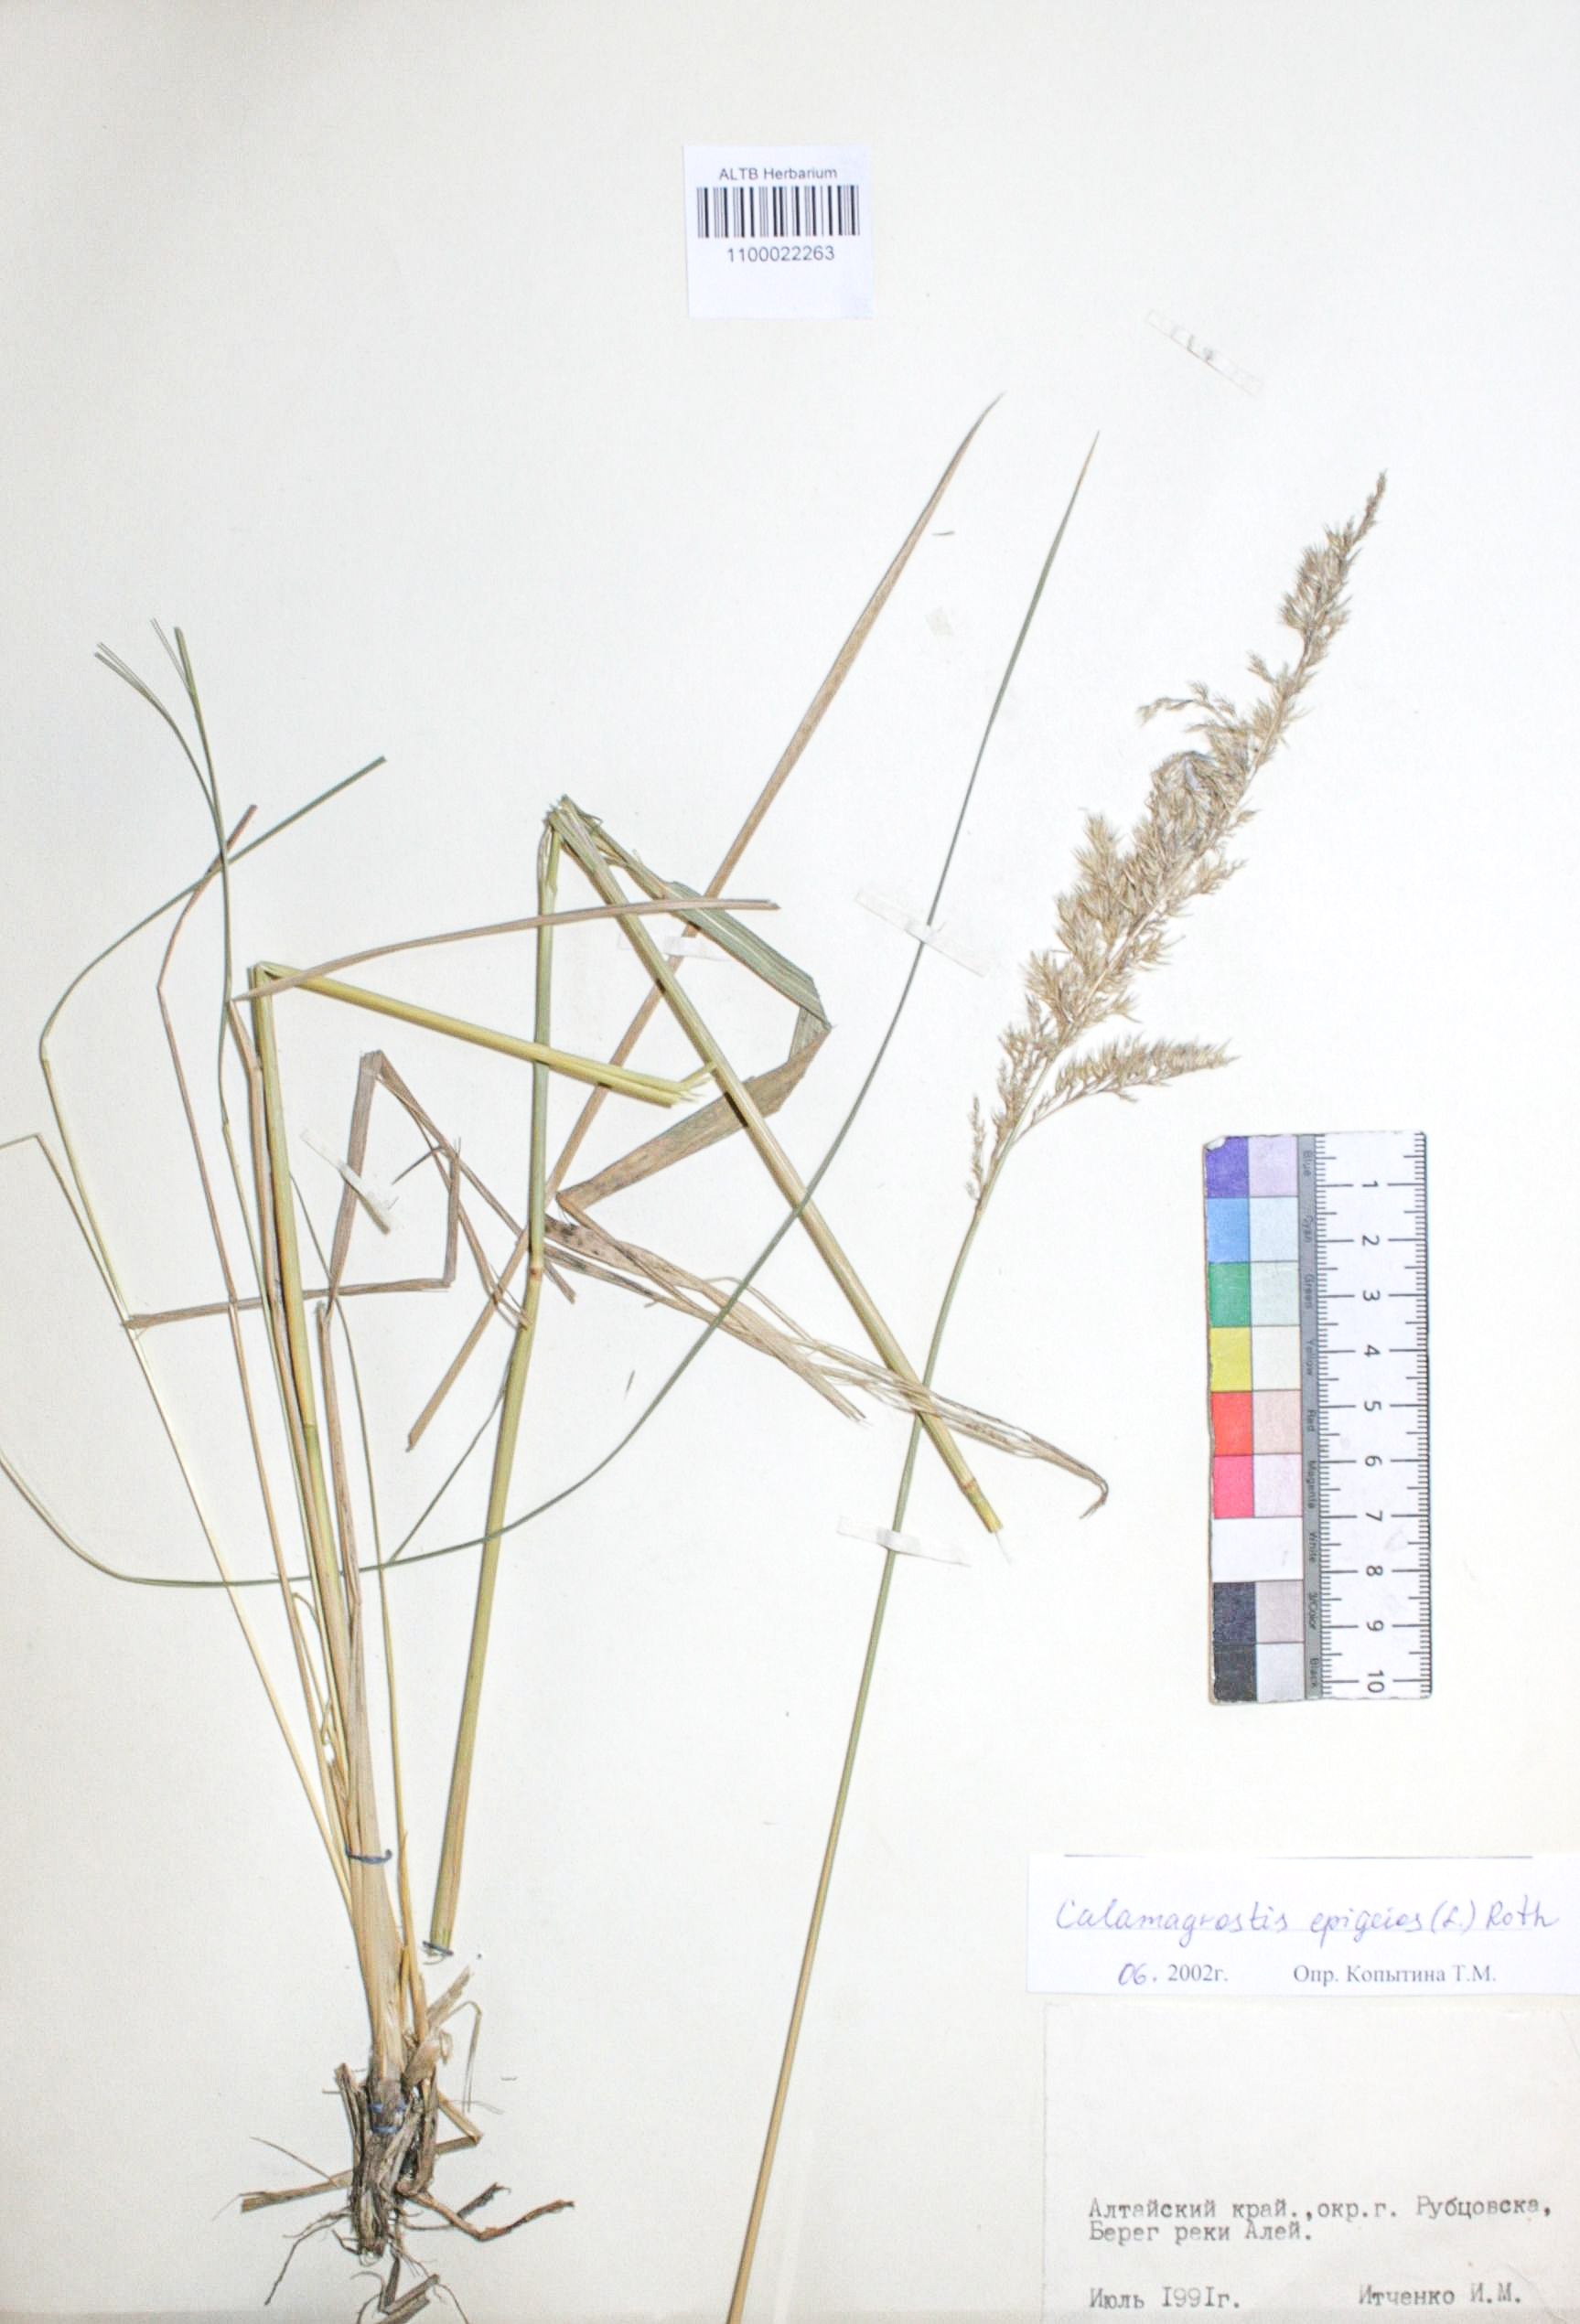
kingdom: Plantae
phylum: Tracheophyta
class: Liliopsida
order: Poales
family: Poaceae
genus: Calamagrostis
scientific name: Calamagrostis epigejos
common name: Wood small-reed
